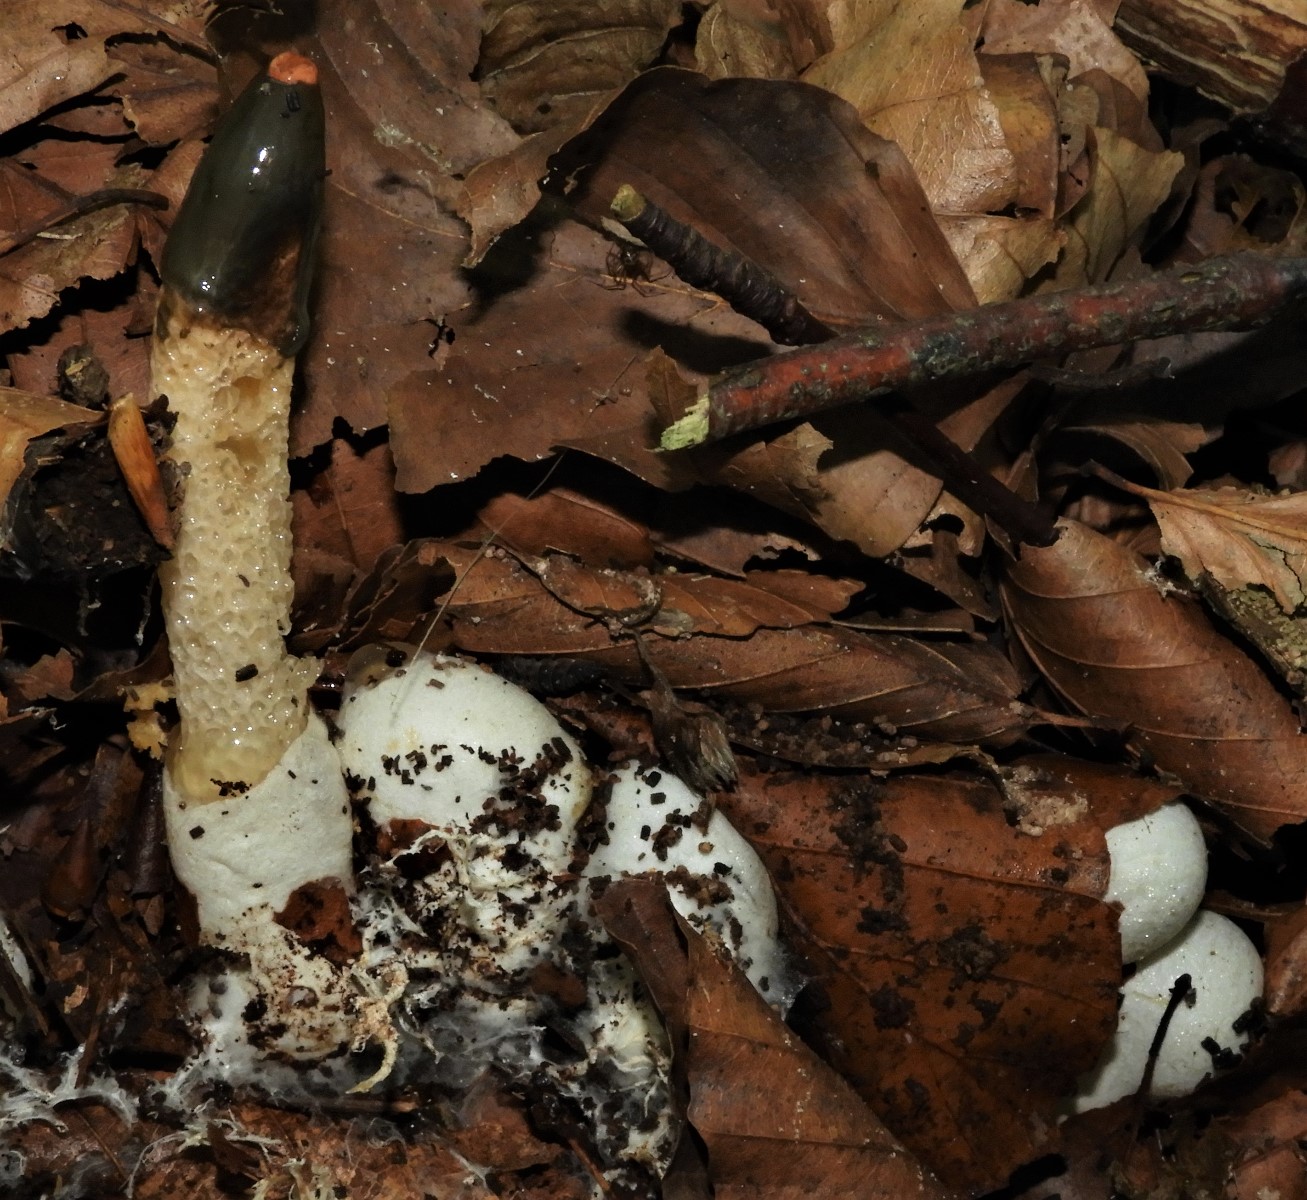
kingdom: Fungi
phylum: Basidiomycota
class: Agaricomycetes
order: Phallales
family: Phallaceae
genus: Mutinus
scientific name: Mutinus caninus
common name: hunde-stinksvamp
